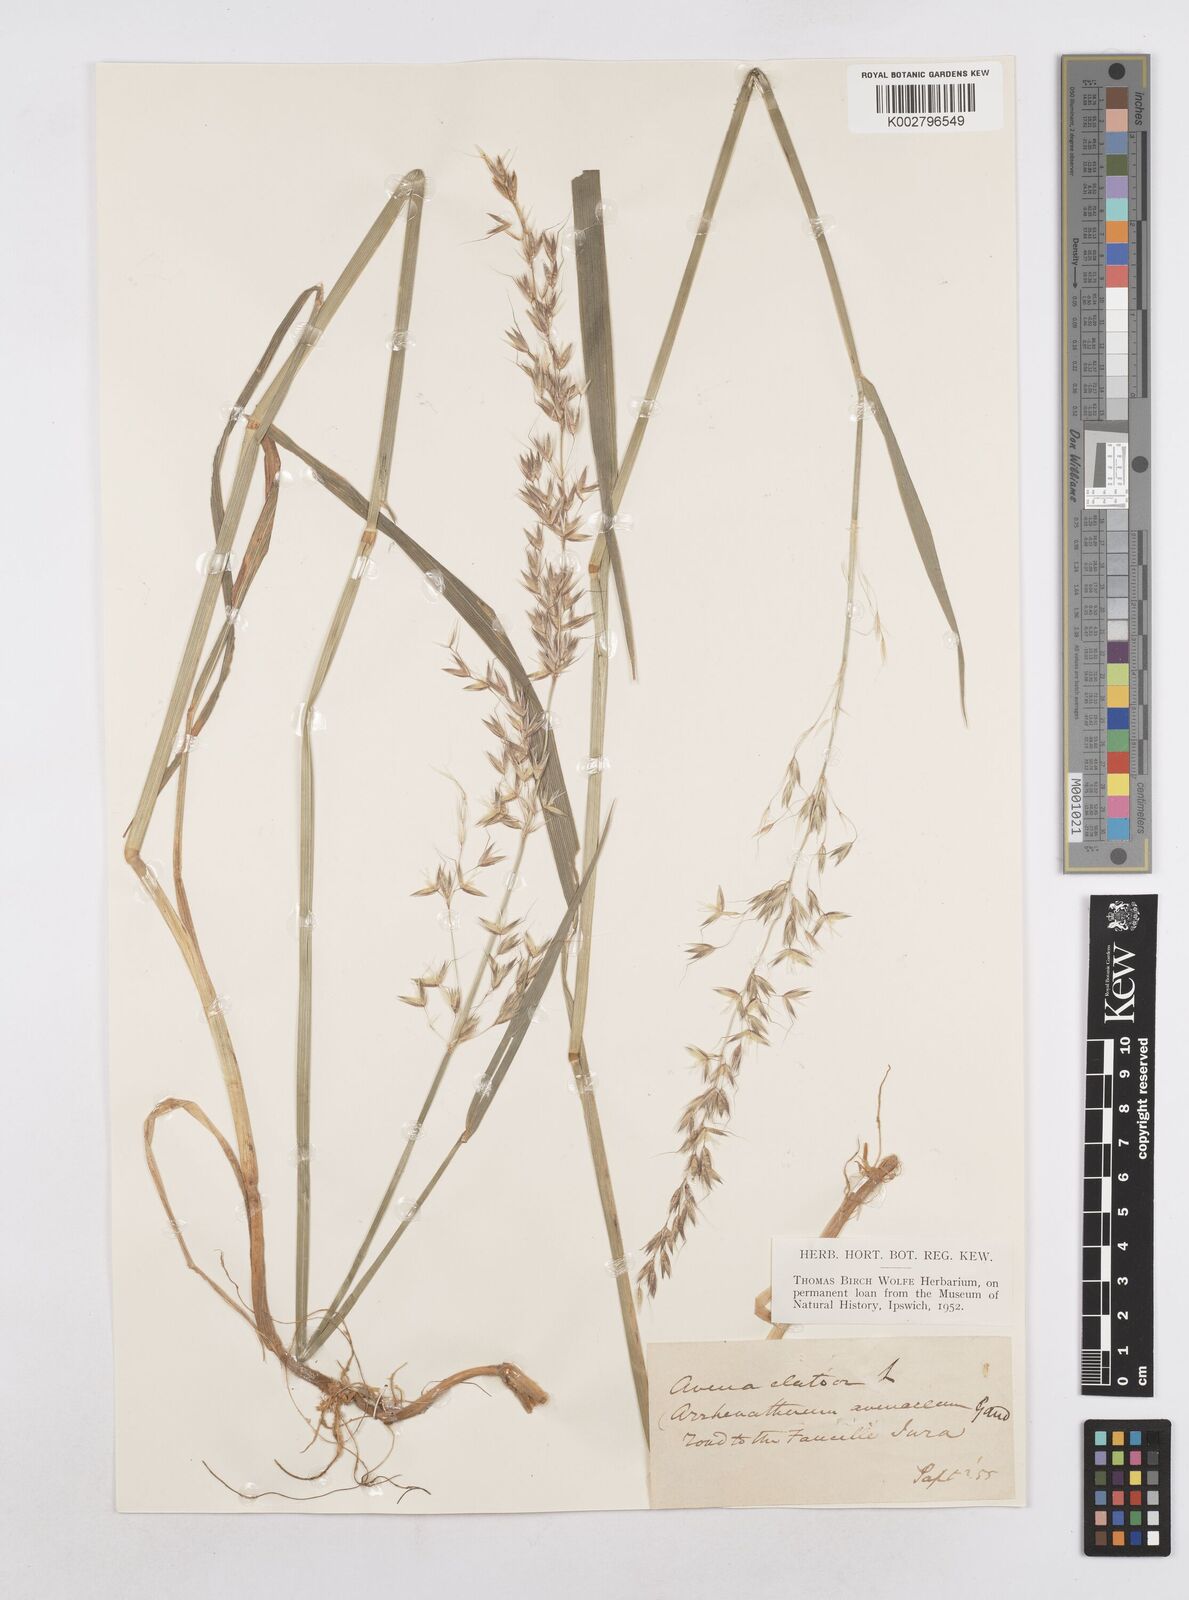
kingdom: Plantae
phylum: Tracheophyta
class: Liliopsida
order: Poales
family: Poaceae
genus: Arrhenatherum
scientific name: Arrhenatherum elatius
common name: Tall oatgrass
